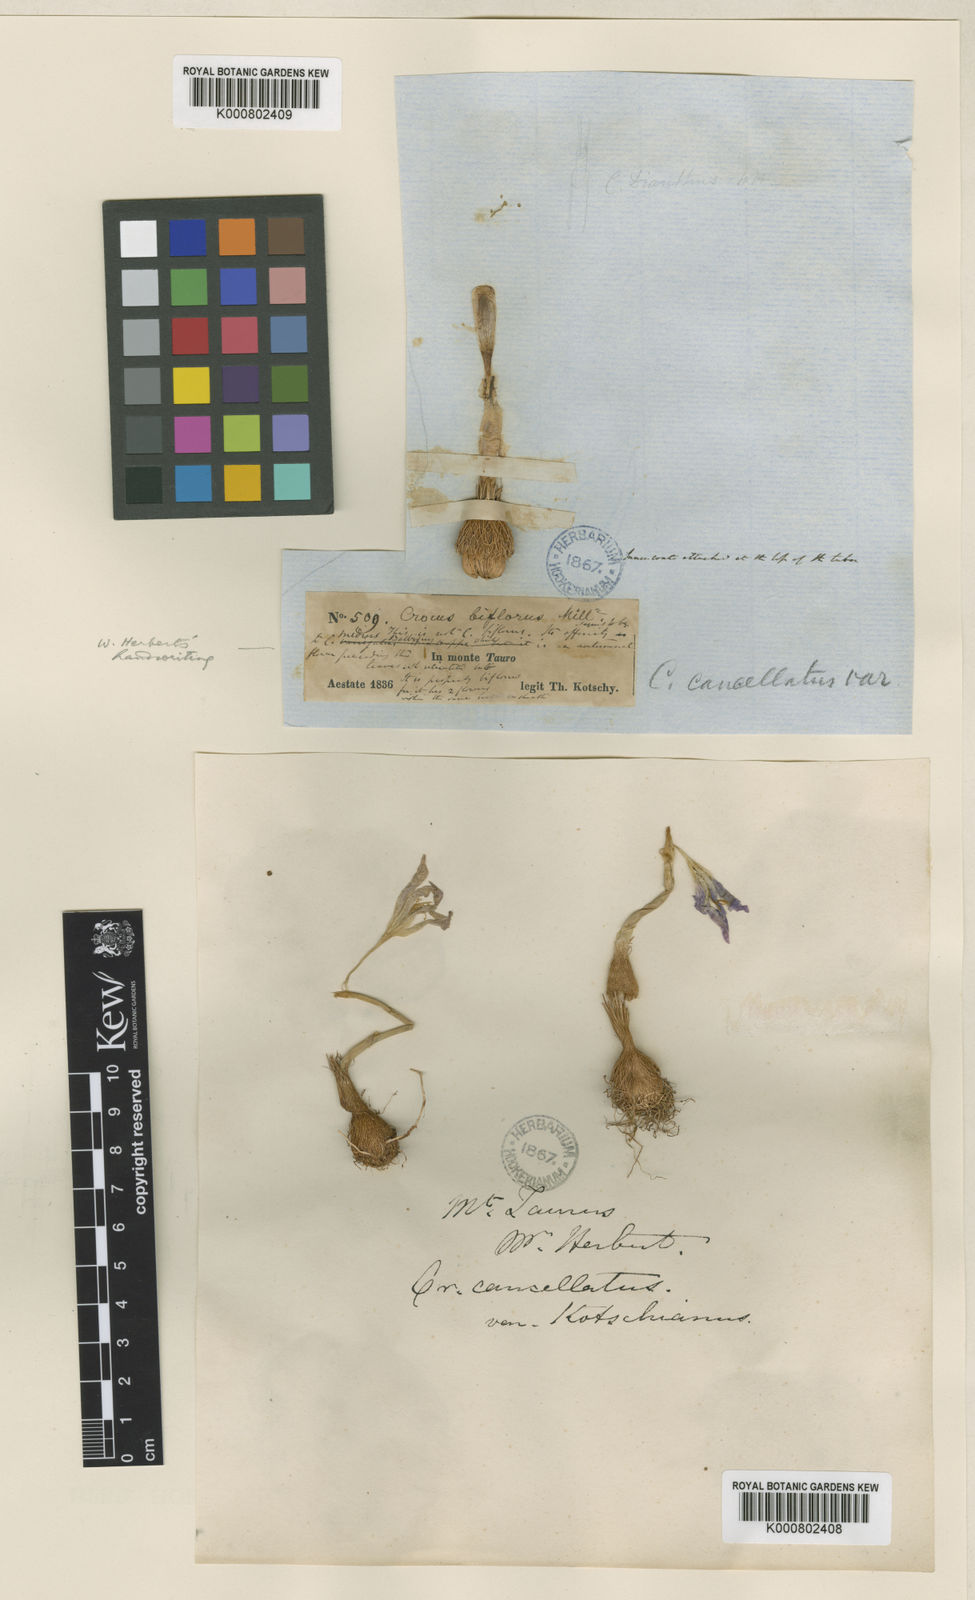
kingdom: Plantae
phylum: Tracheophyta
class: Liliopsida
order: Asparagales
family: Iridaceae
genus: Crocus
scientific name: Crocus cancellatus
